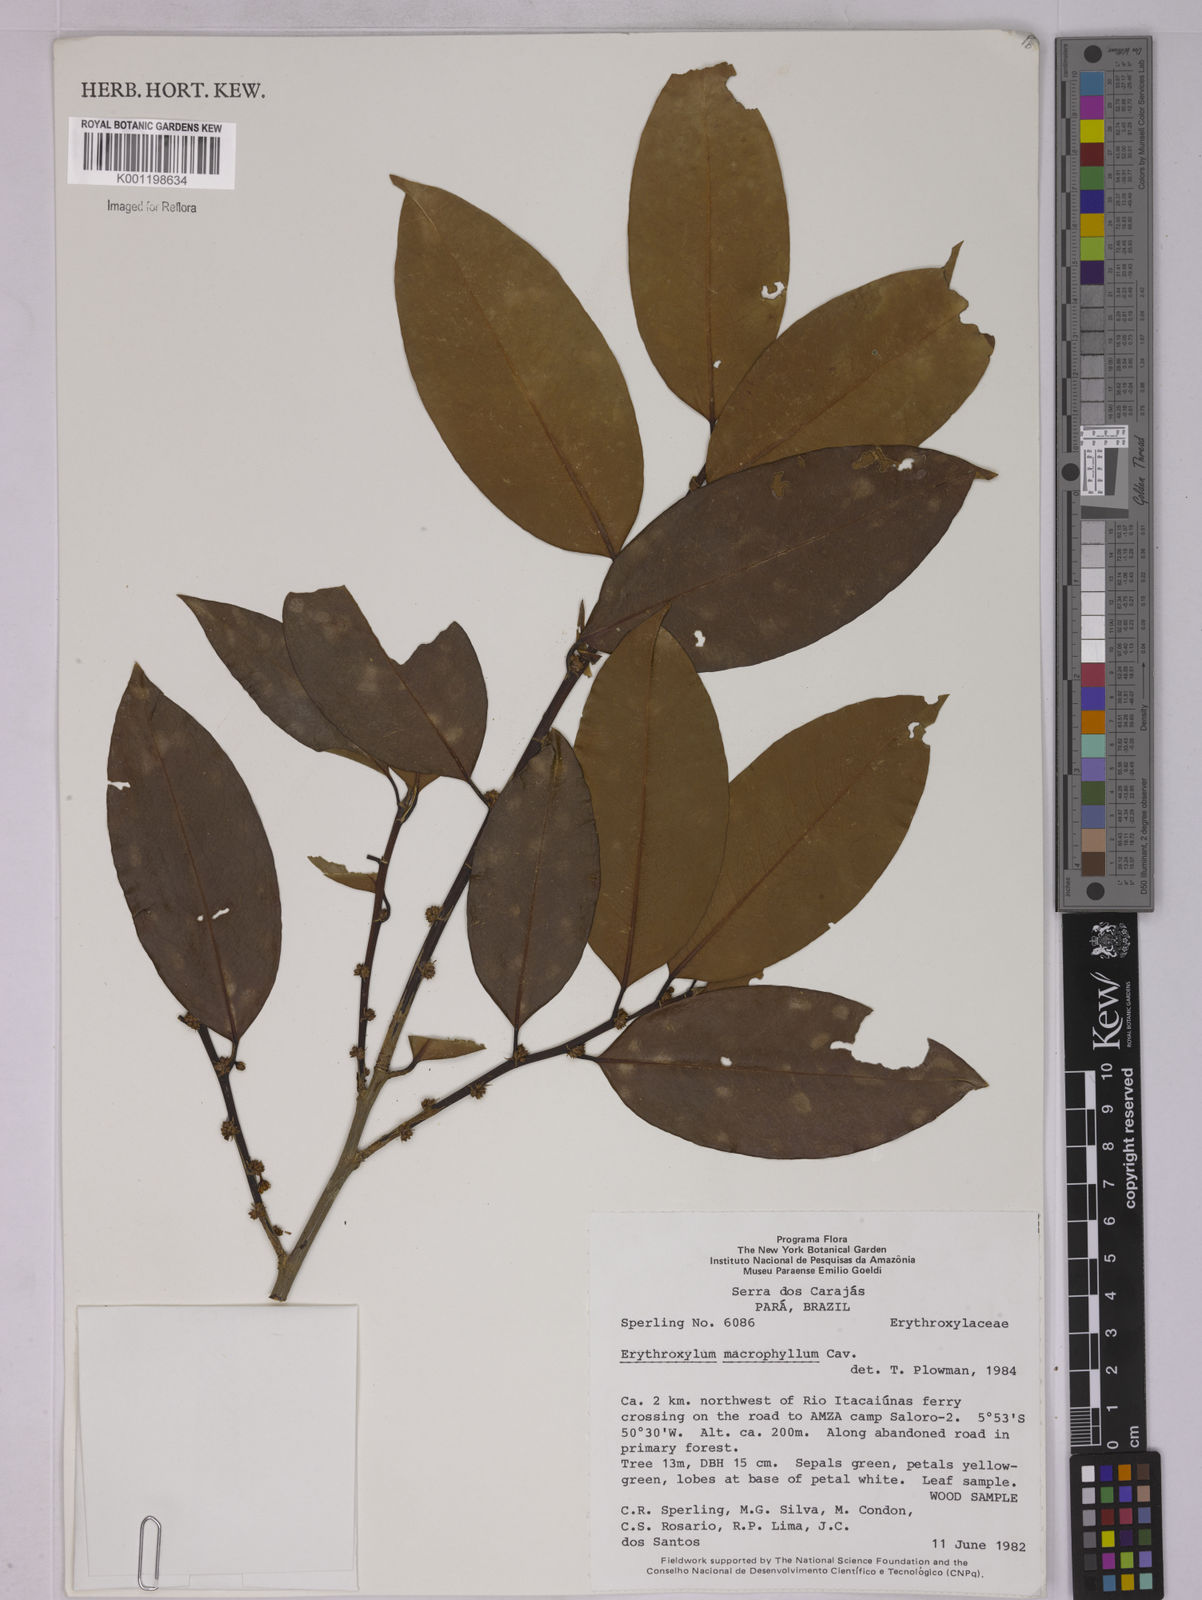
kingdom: Plantae
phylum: Tracheophyta
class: Magnoliopsida
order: Malpighiales
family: Erythroxylaceae
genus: Erythroxylum
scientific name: Erythroxylum macrophyllum
